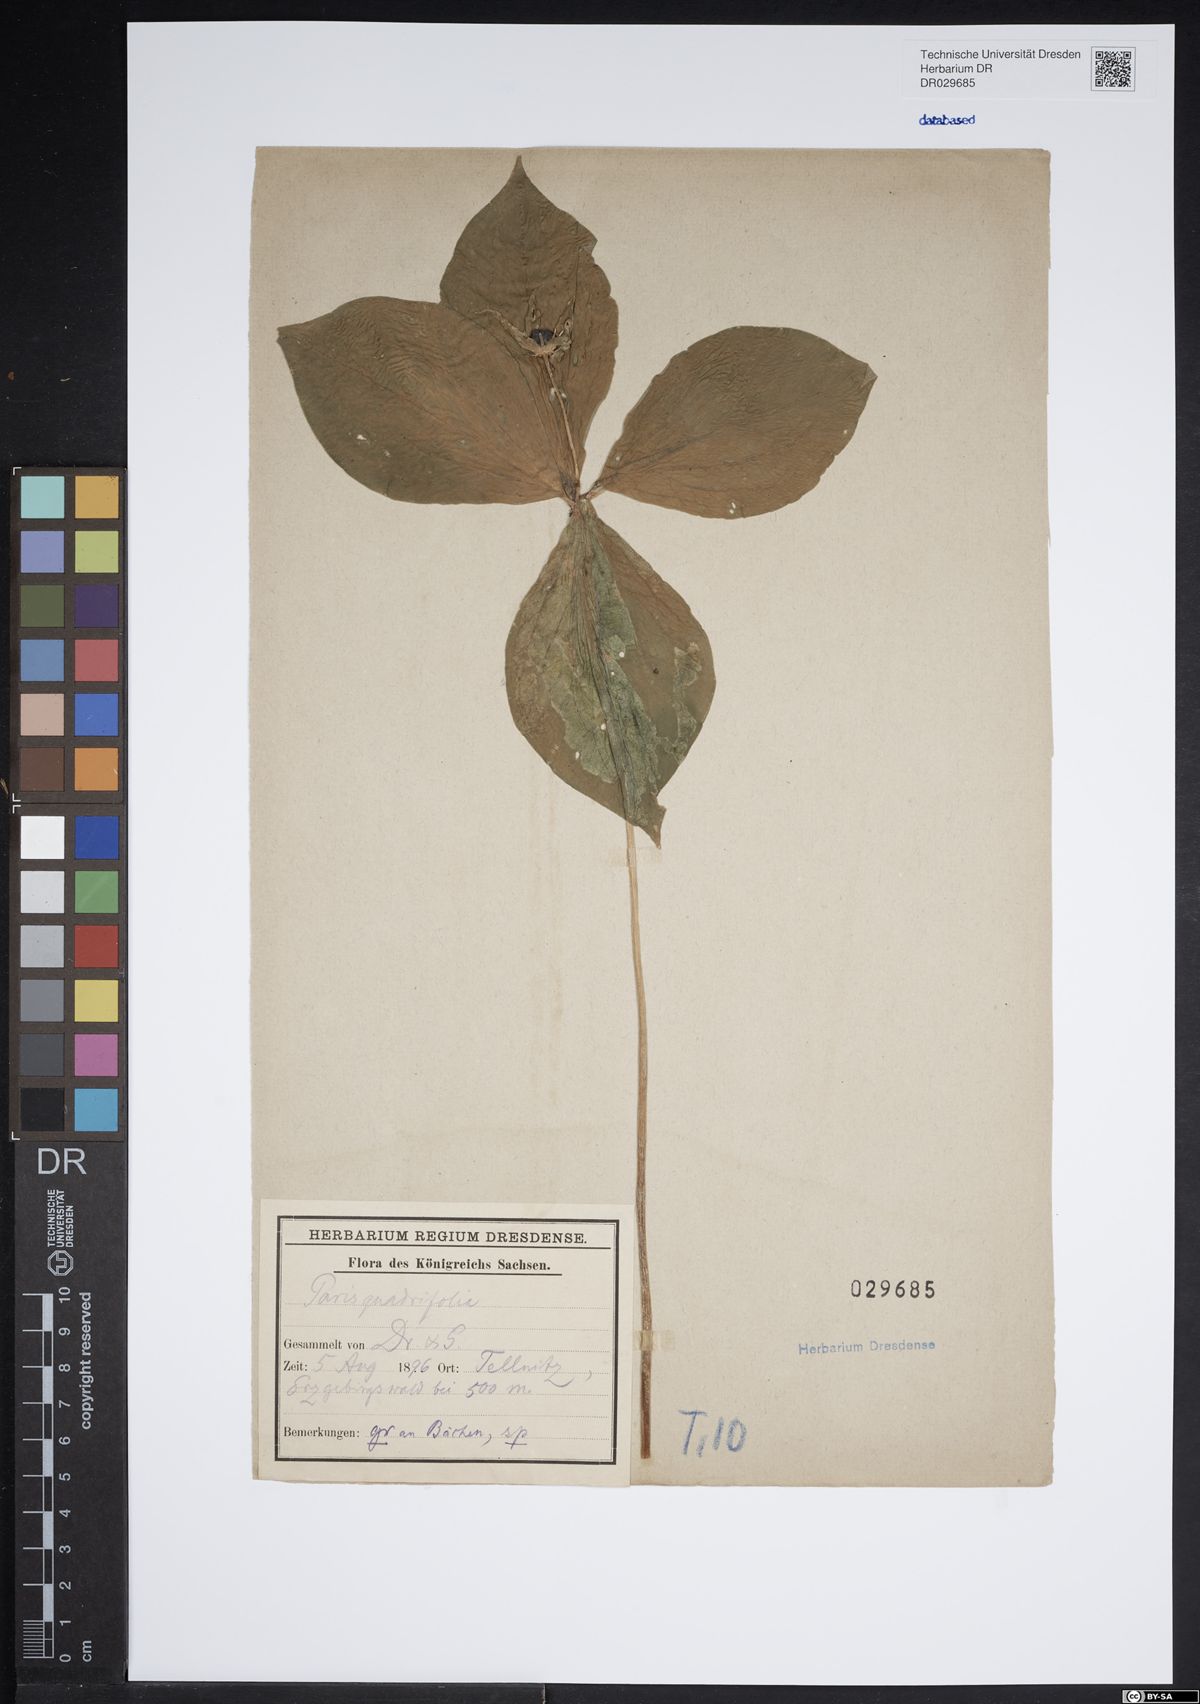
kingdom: Plantae
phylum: Tracheophyta
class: Liliopsida
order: Liliales
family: Melanthiaceae
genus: Paris
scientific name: Paris quadrifolia
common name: Herb-paris
